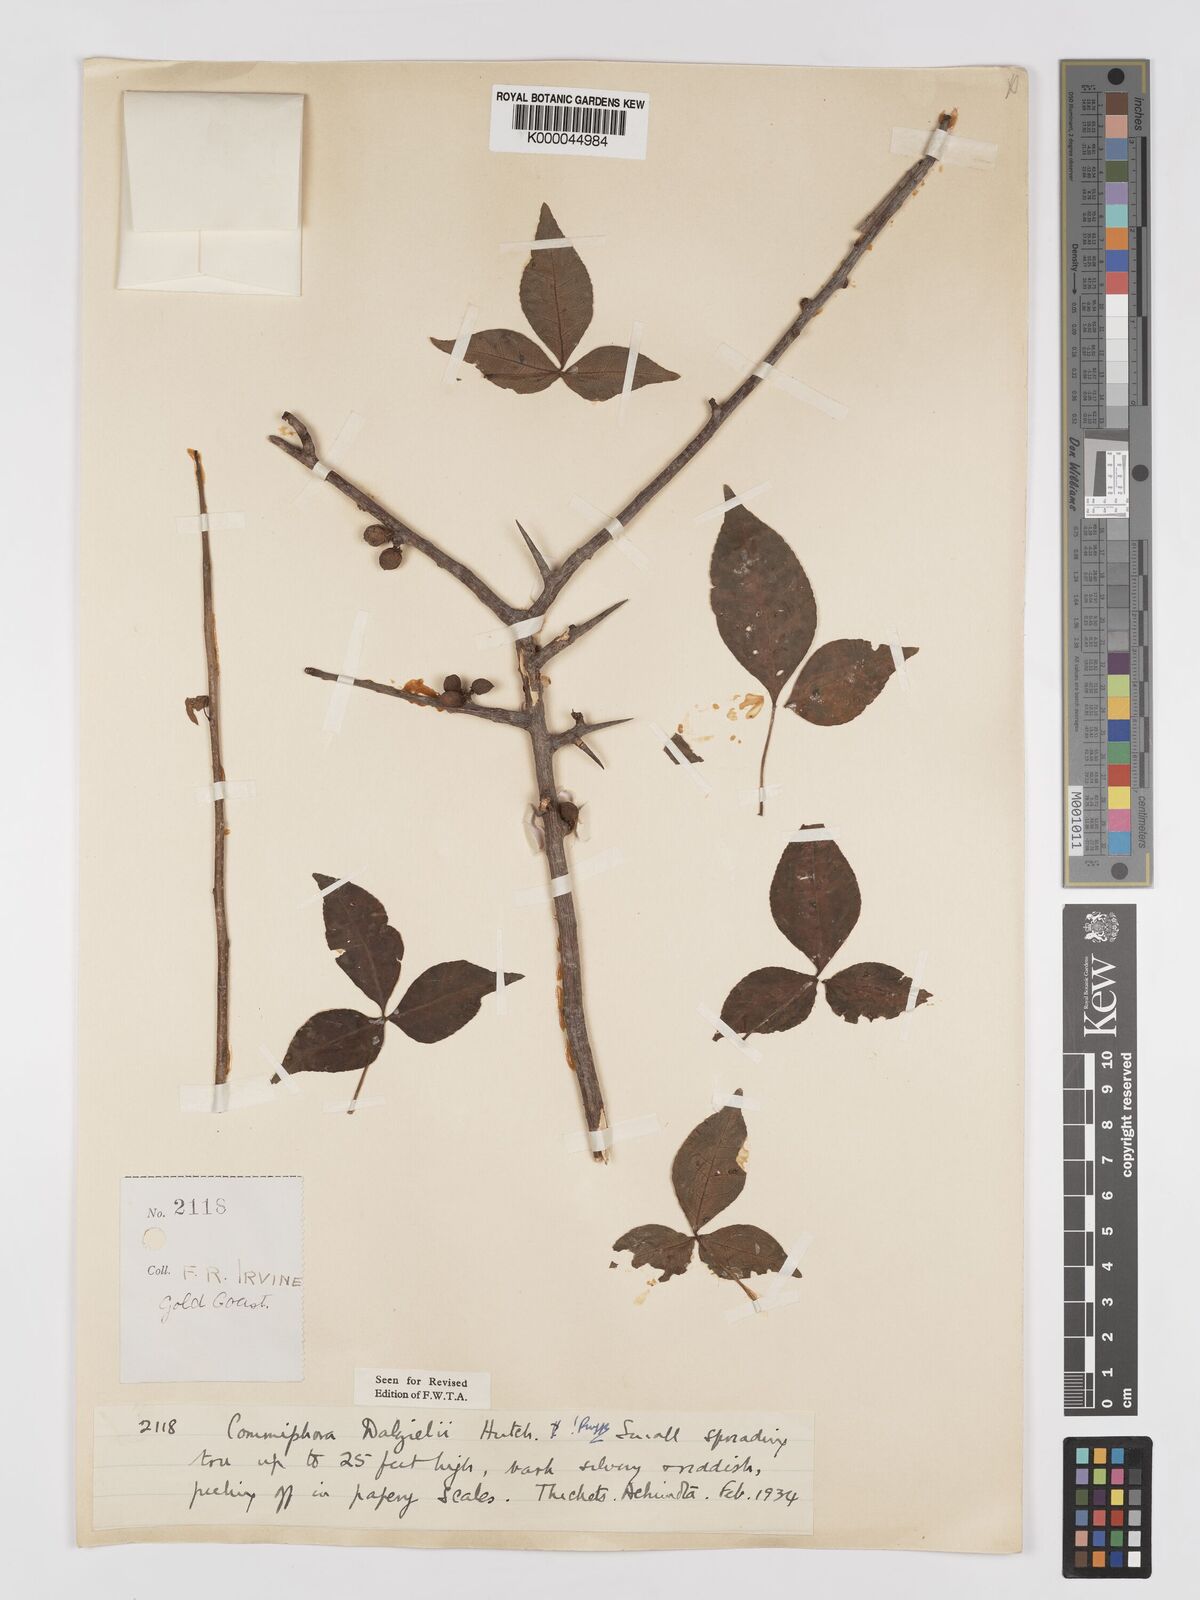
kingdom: Plantae
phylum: Tracheophyta
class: Magnoliopsida
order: Sapindales
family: Burseraceae
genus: Commiphora
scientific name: Commiphora dalzielii
